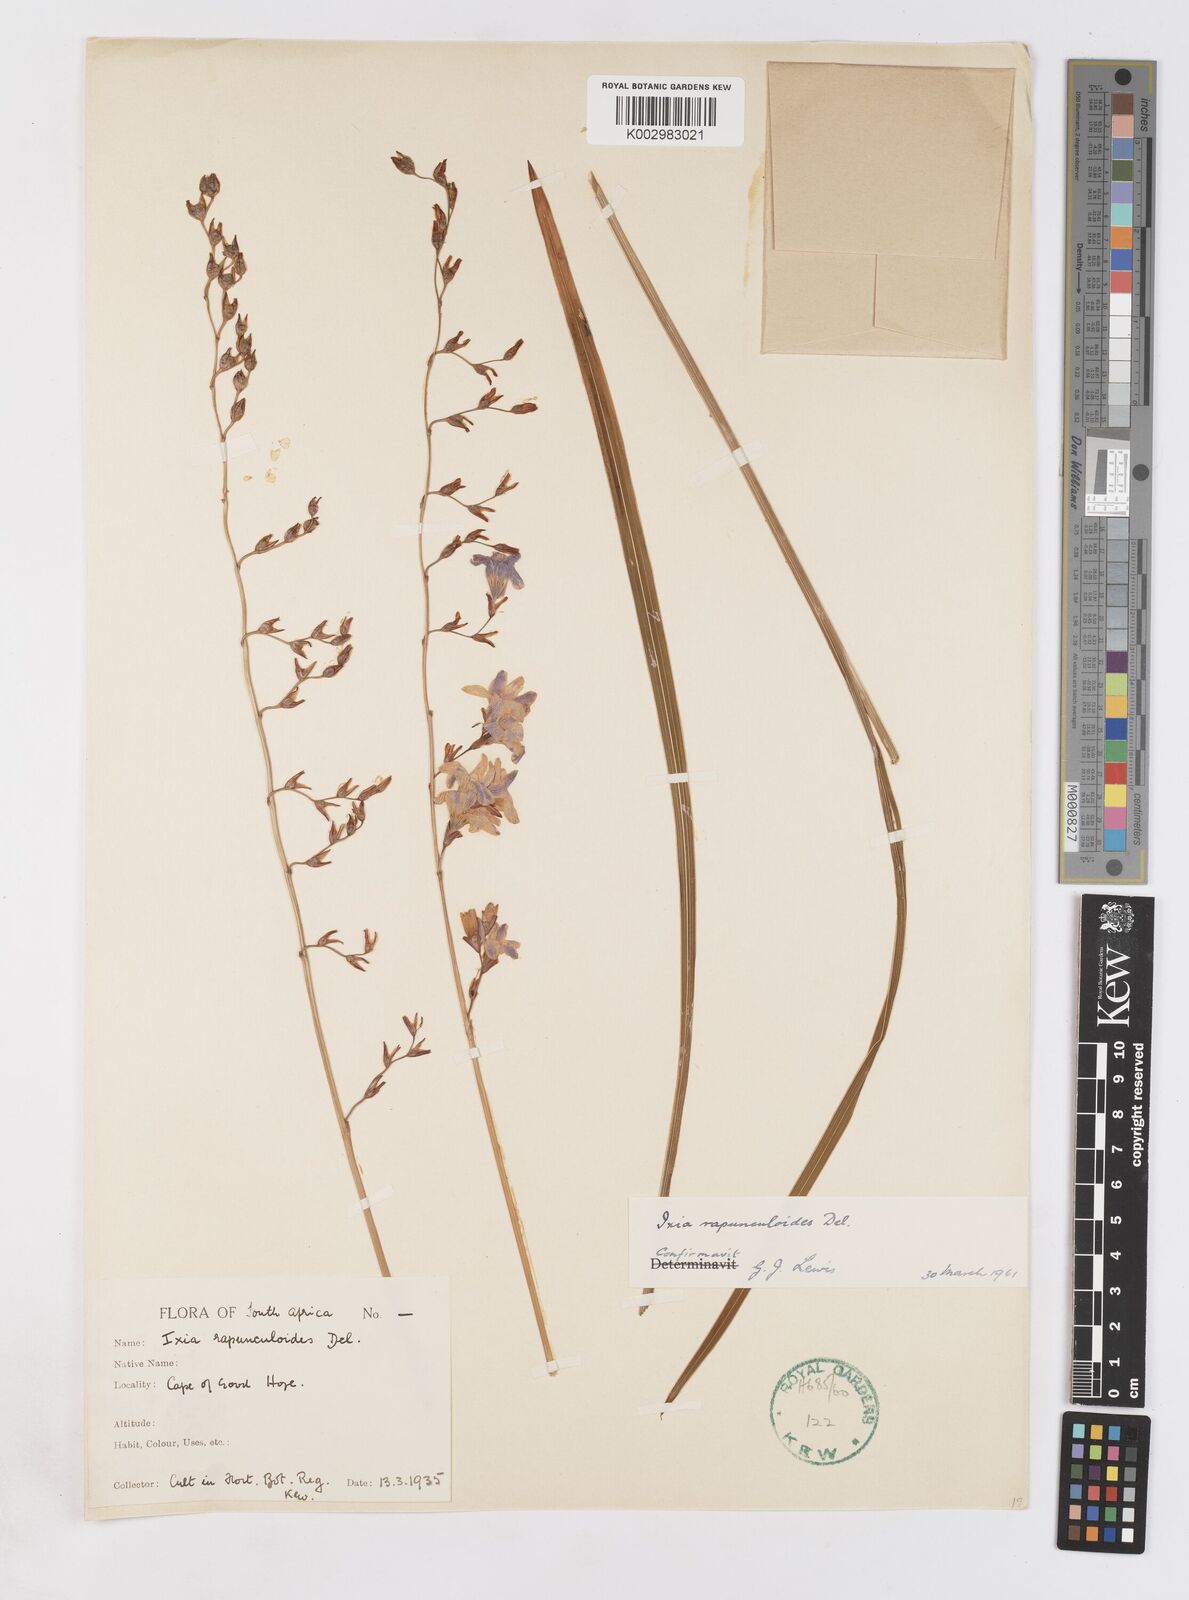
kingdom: Plantae
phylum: Tracheophyta
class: Liliopsida
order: Asparagales
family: Iridaceae
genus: Ixia
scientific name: Ixia rapunculoides
